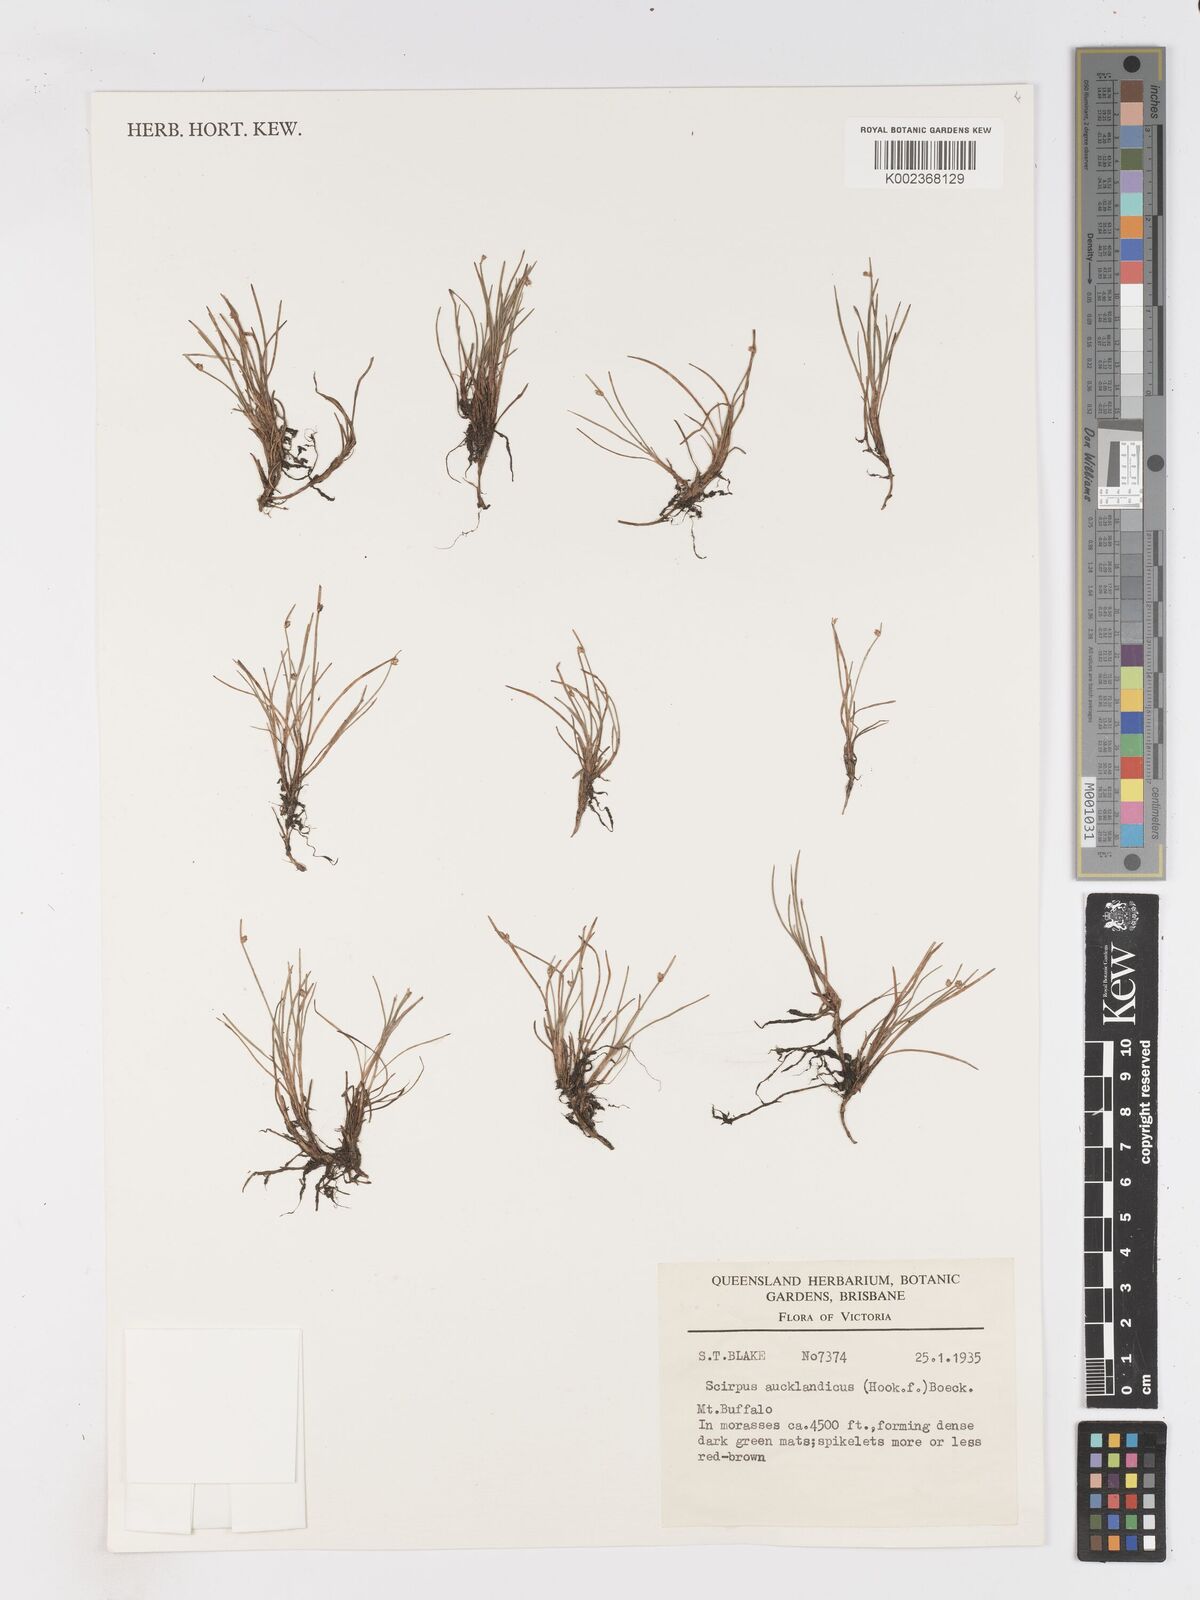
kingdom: Plantae
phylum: Tracheophyta
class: Liliopsida
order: Poales
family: Cyperaceae
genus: Isolepis
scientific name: Isolepis aucklandica
